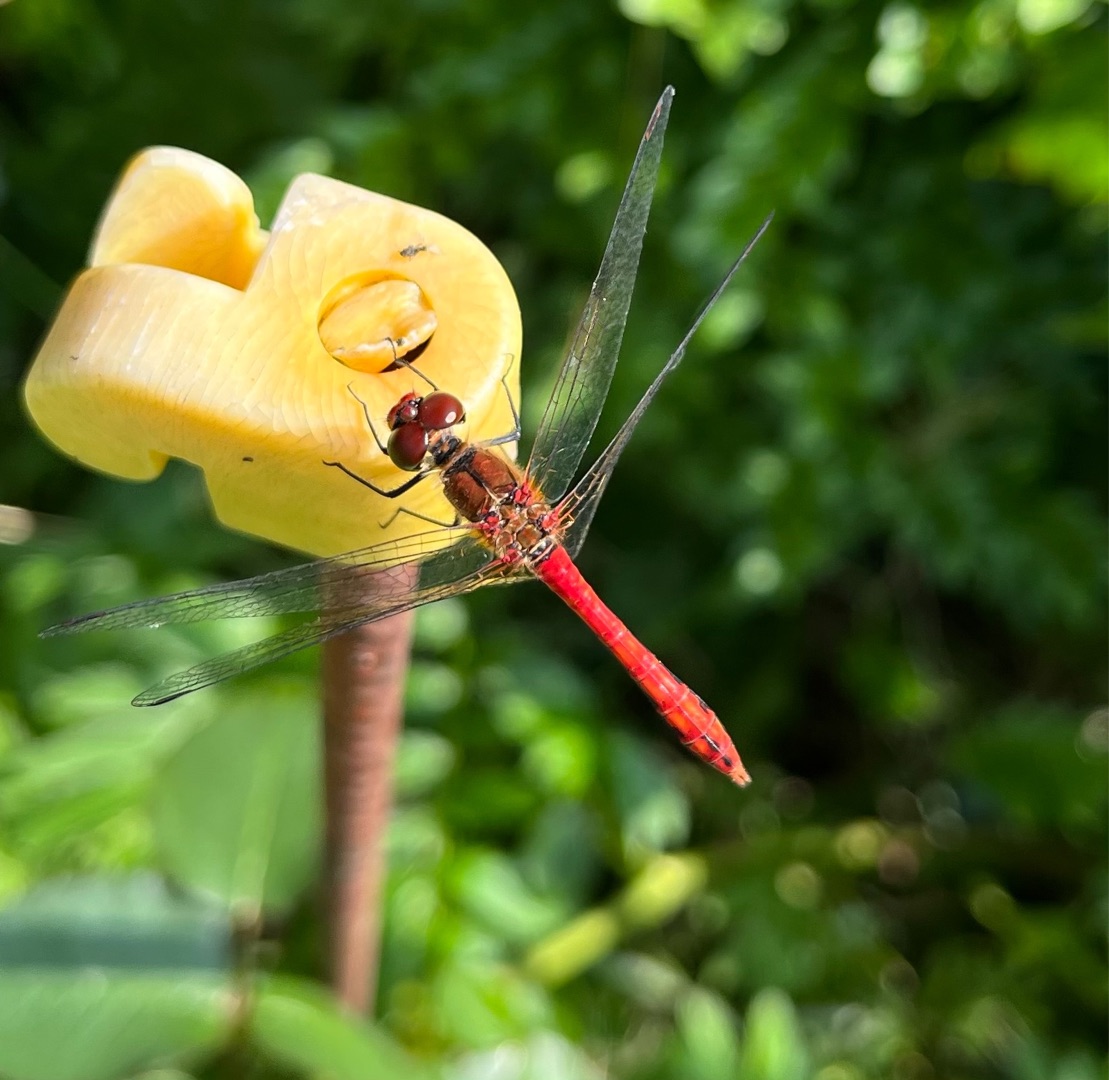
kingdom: Animalia
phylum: Arthropoda
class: Insecta
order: Odonata
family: Libellulidae
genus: Sympetrum
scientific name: Sympetrum sanguineum
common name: Blodrød hedelibel
